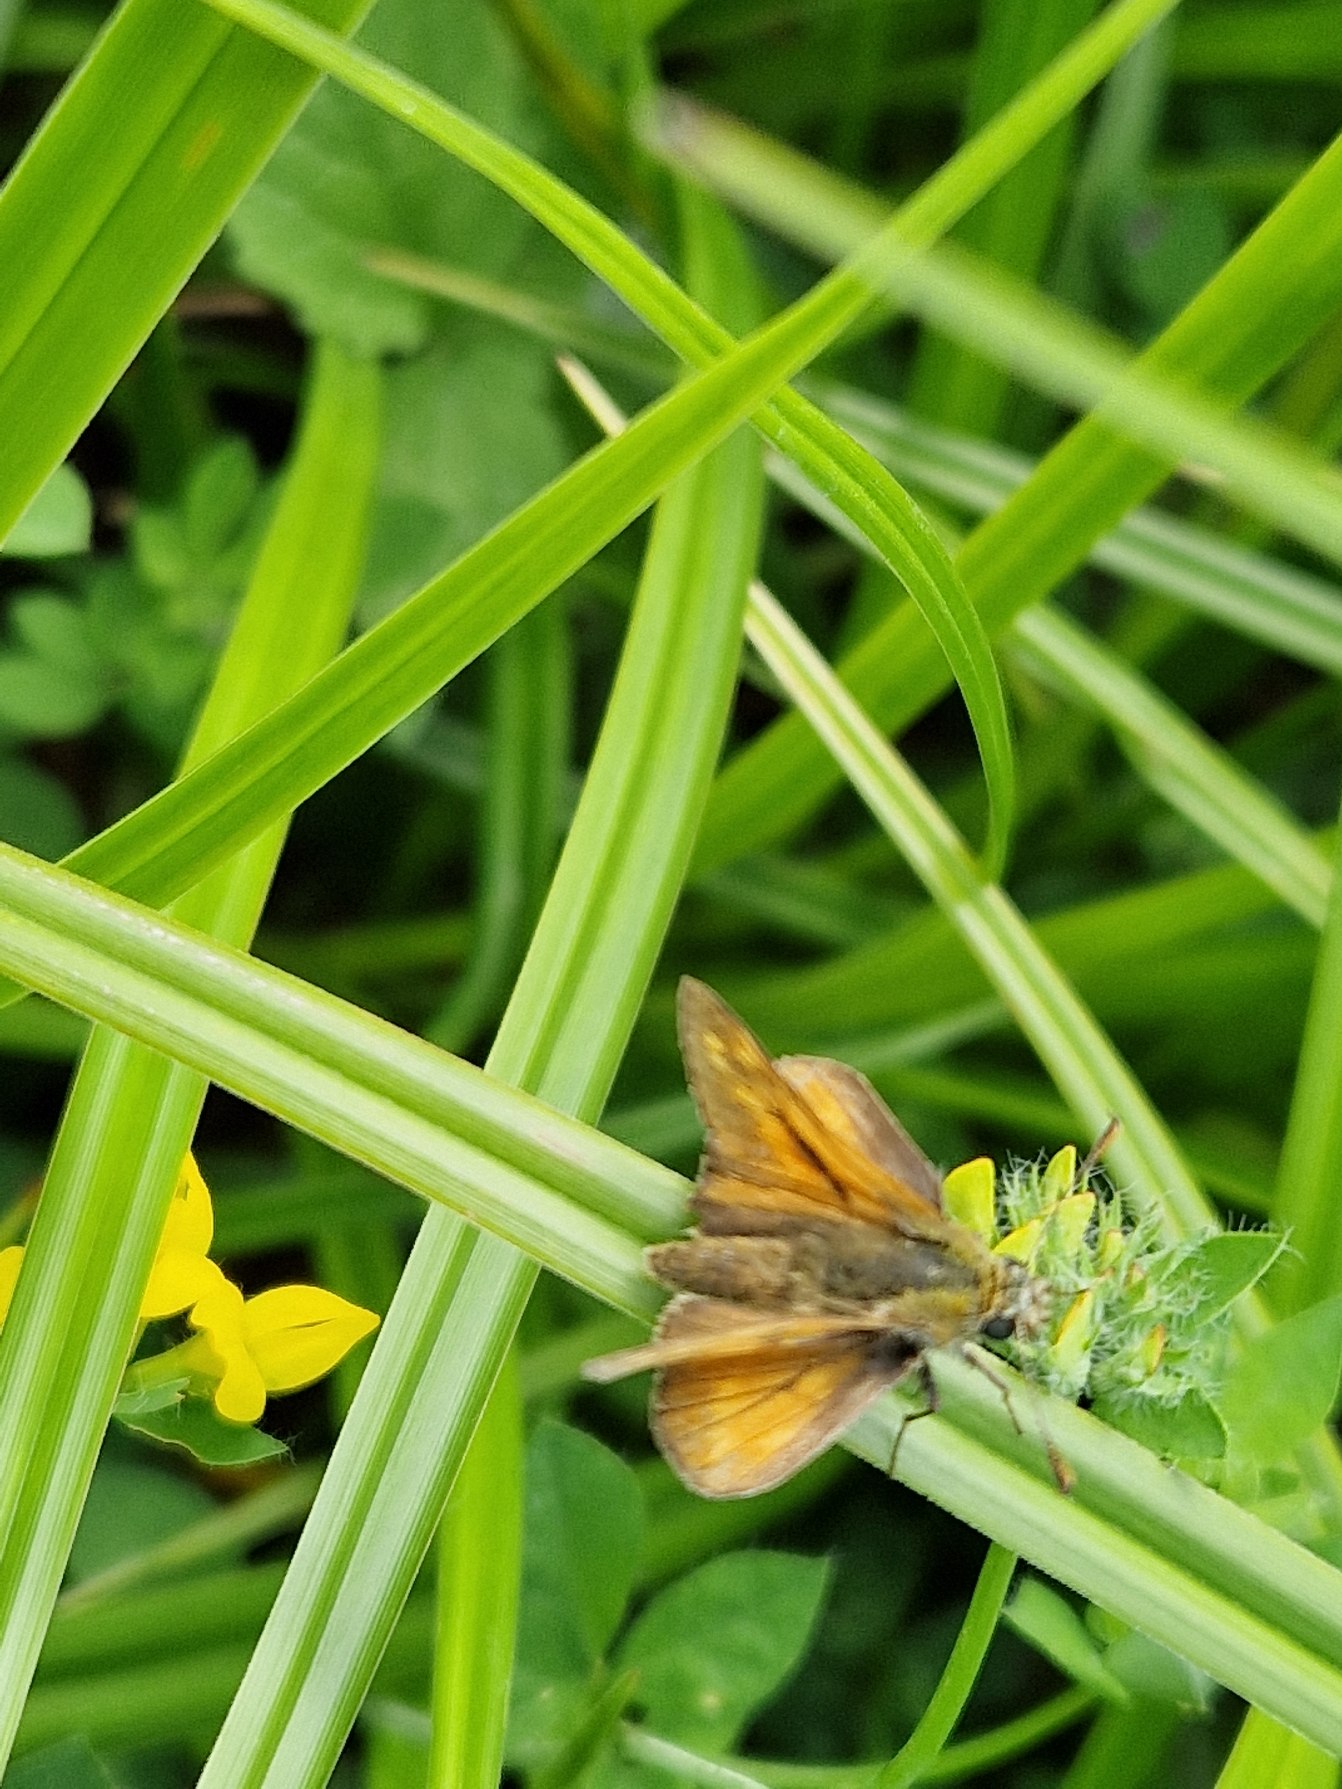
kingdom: Animalia
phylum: Arthropoda
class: Insecta
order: Lepidoptera
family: Hesperiidae
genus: Ochlodes
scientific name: Ochlodes venata
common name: Stor bredpande
